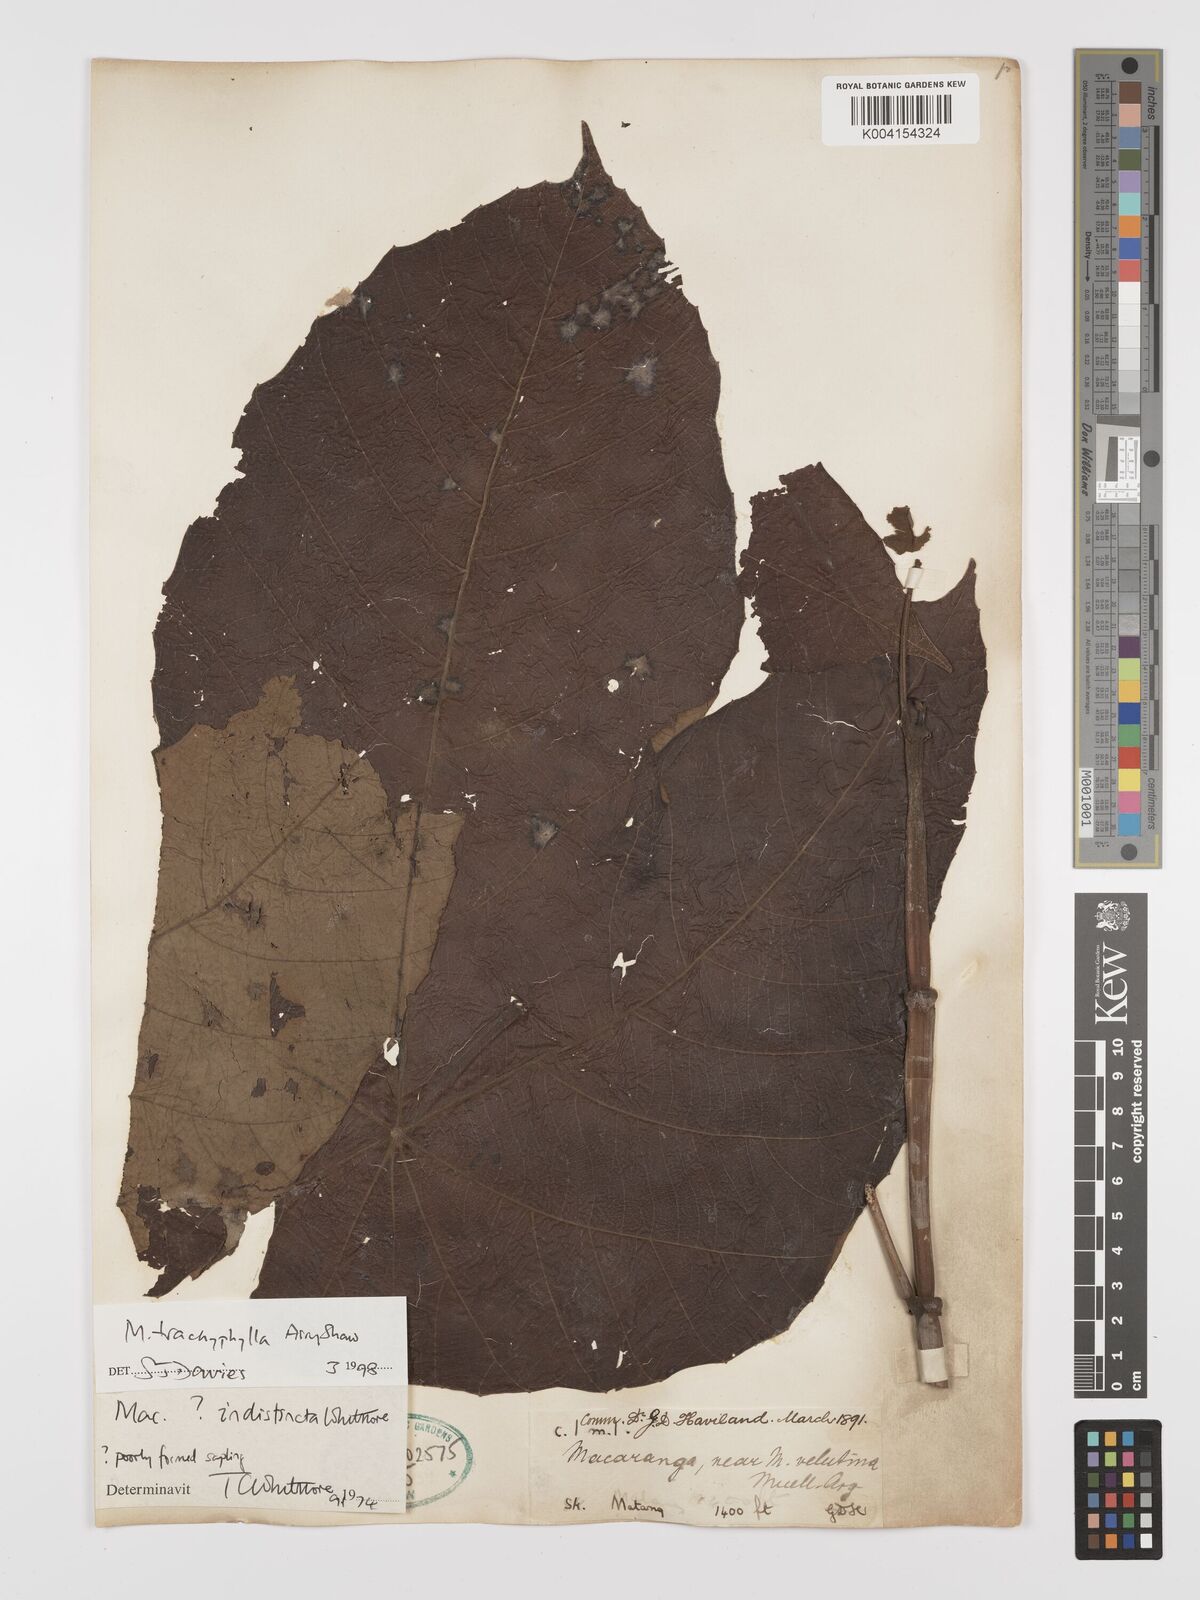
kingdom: Plantae
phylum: Tracheophyta
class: Magnoliopsida
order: Malpighiales
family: Euphorbiaceae
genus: Macaranga
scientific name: Macaranga trachyphylla
